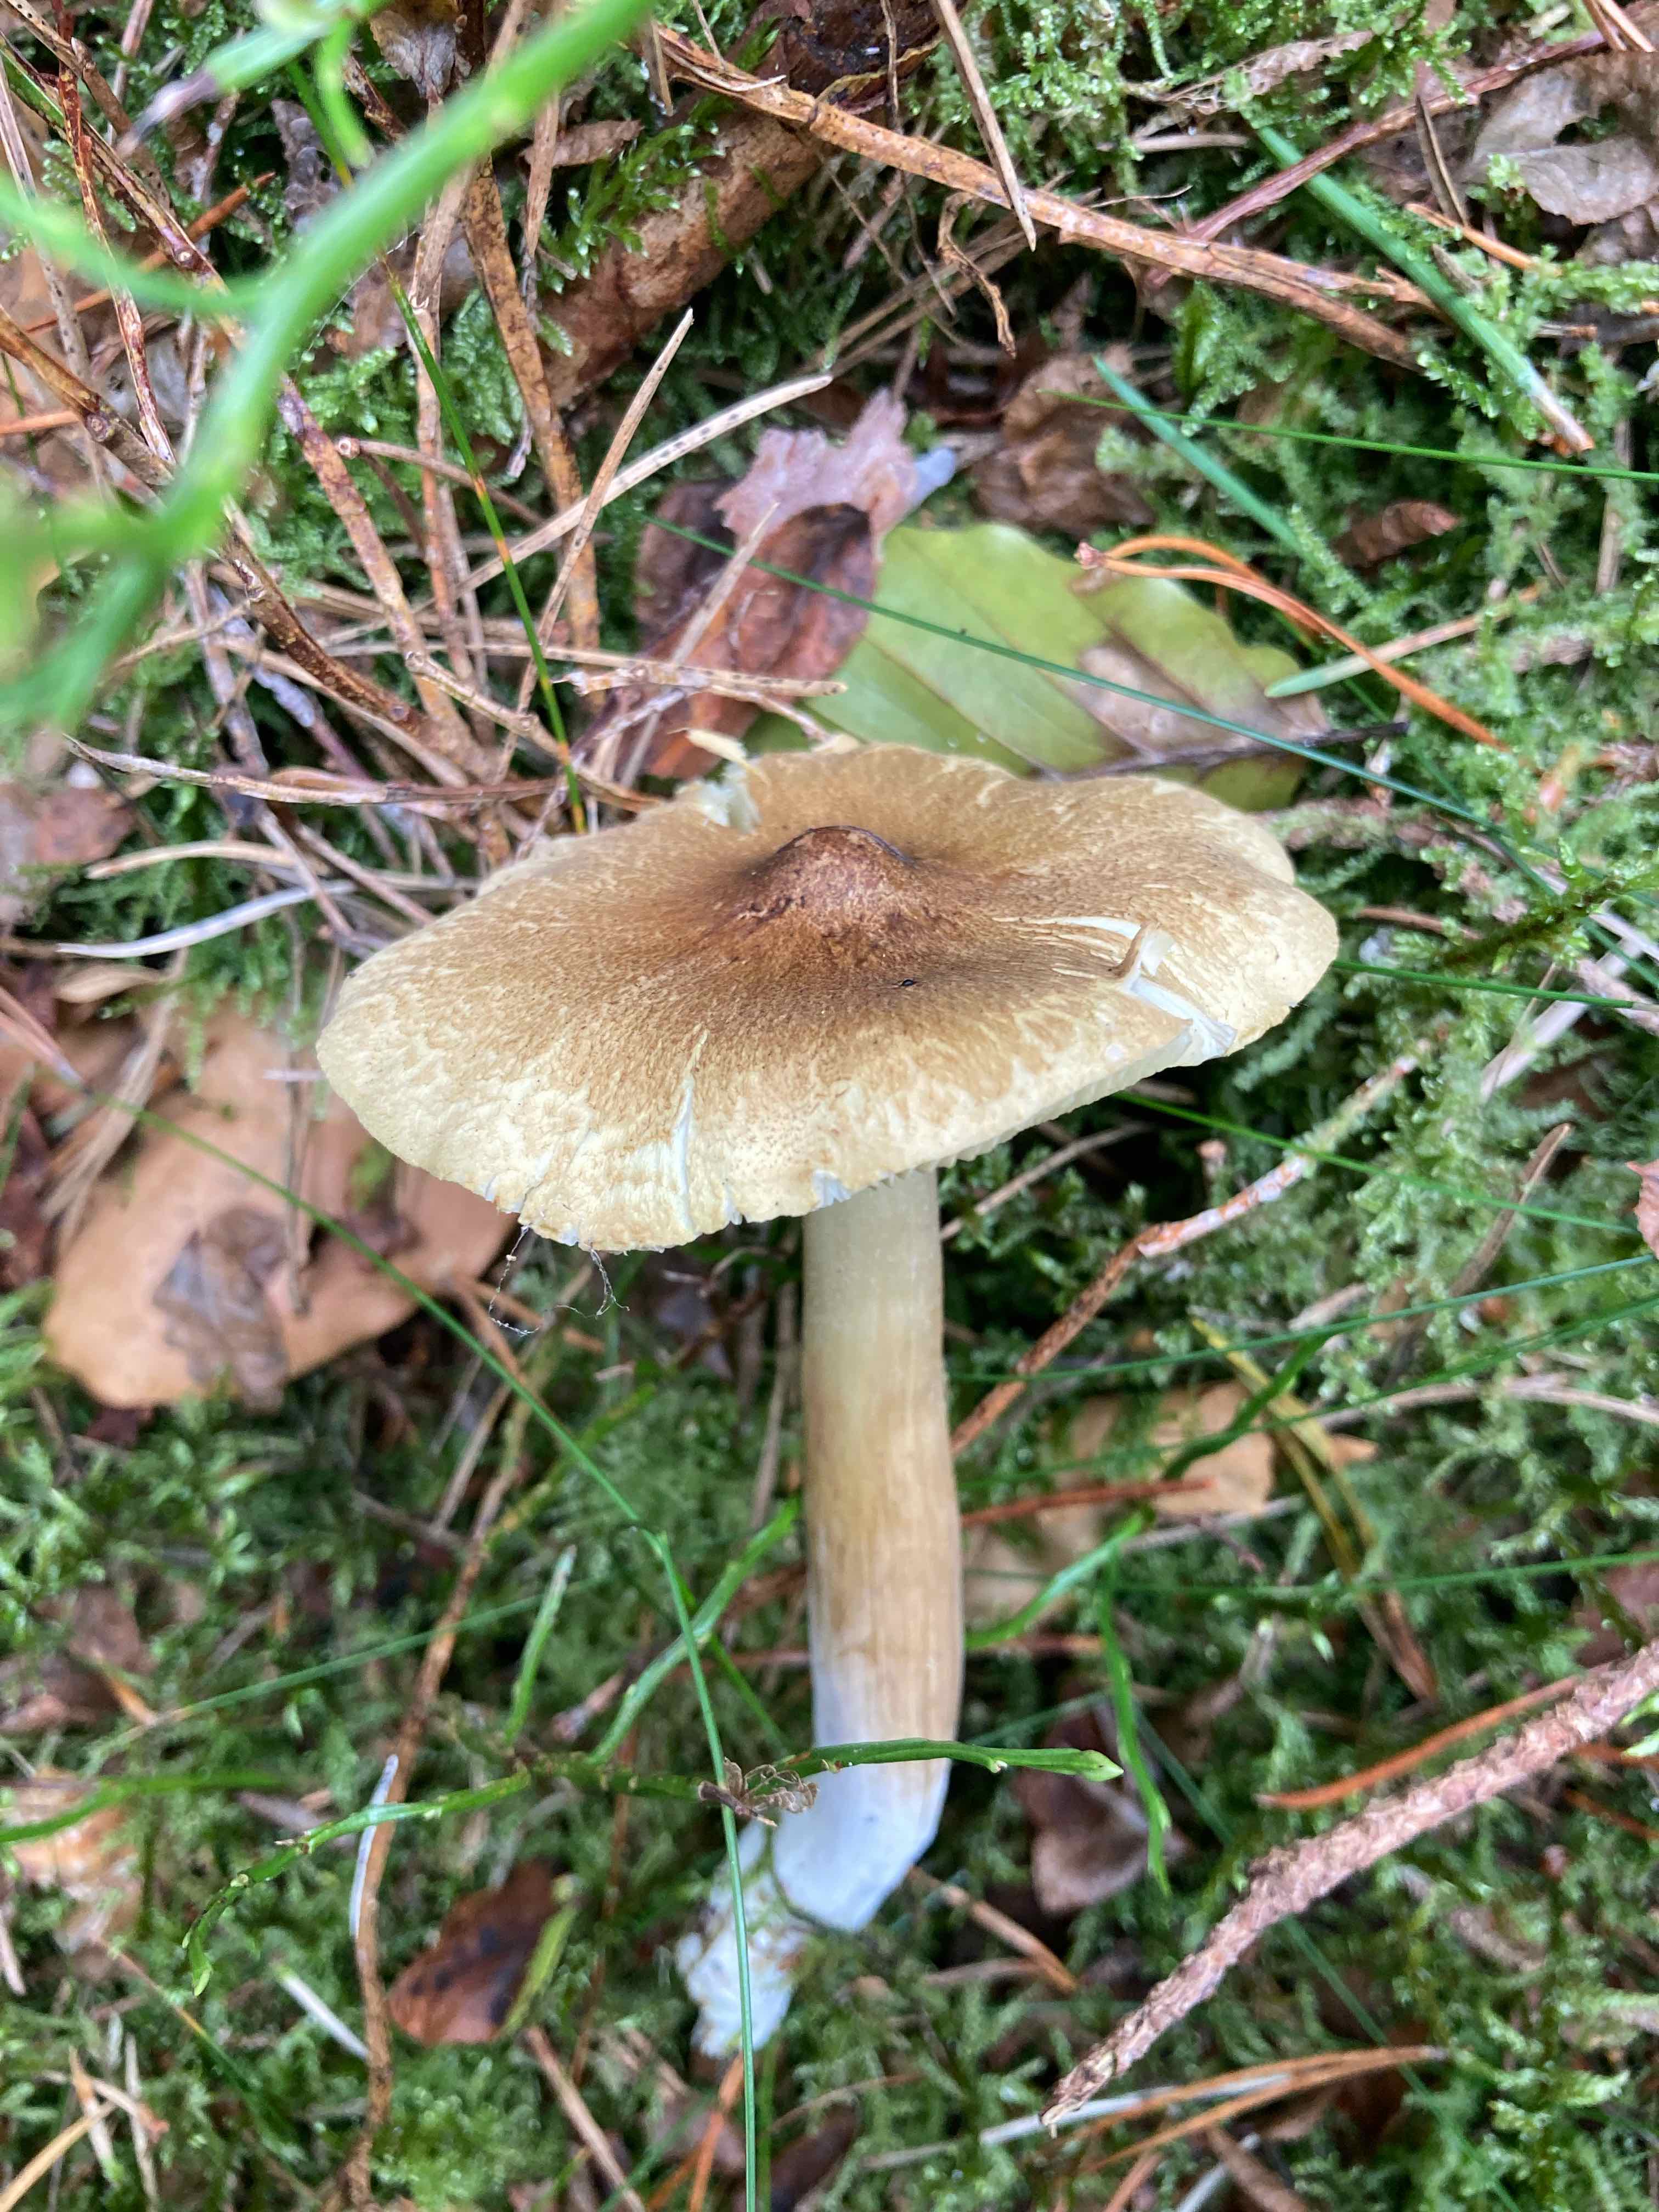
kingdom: Fungi
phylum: Basidiomycota
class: Agaricomycetes
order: Agaricales
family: Tricholomataceae
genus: Tricholoma
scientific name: Tricholoma aestuans
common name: kegle-ridderhat
